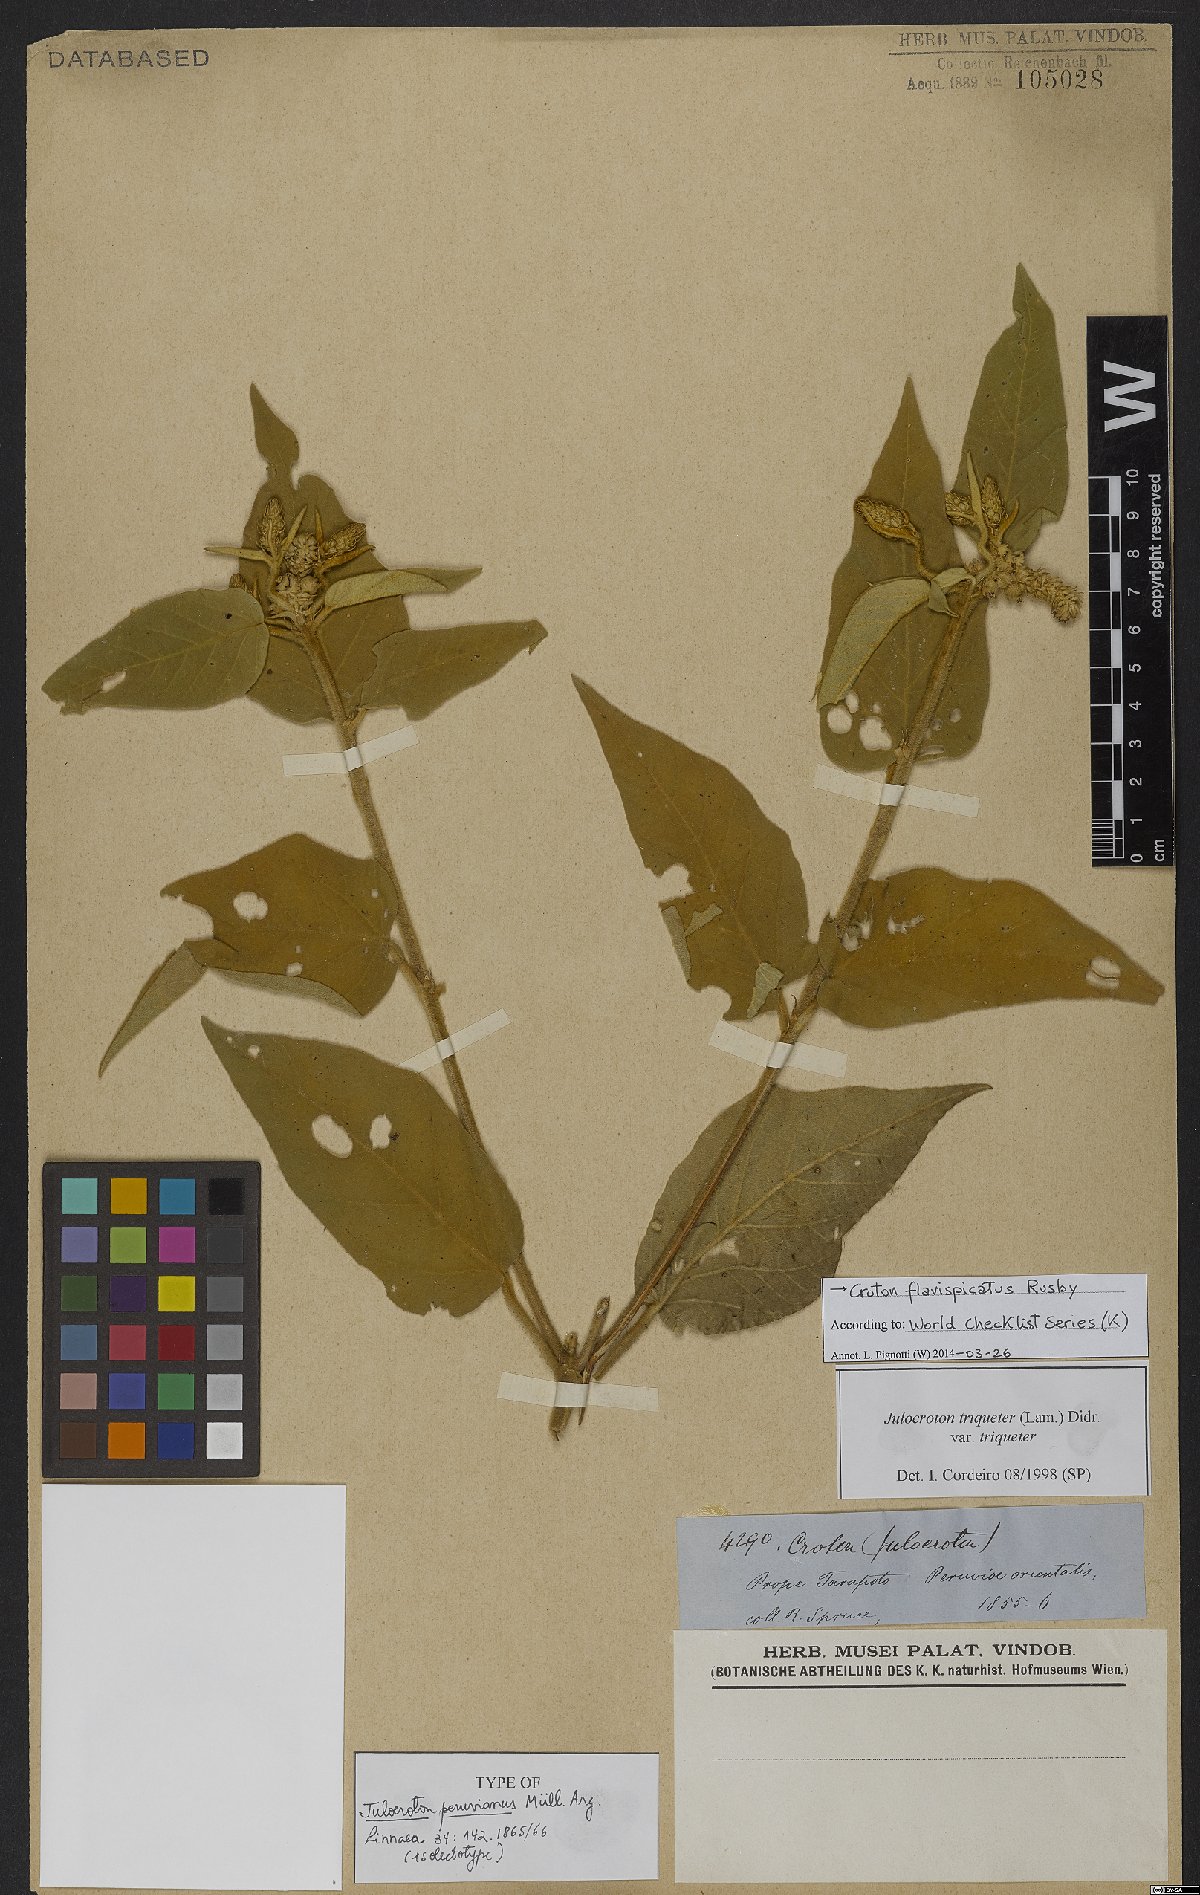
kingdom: Plantae
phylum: Tracheophyta
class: Magnoliopsida
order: Malpighiales
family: Euphorbiaceae
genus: Croton
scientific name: Croton flavispicatus
